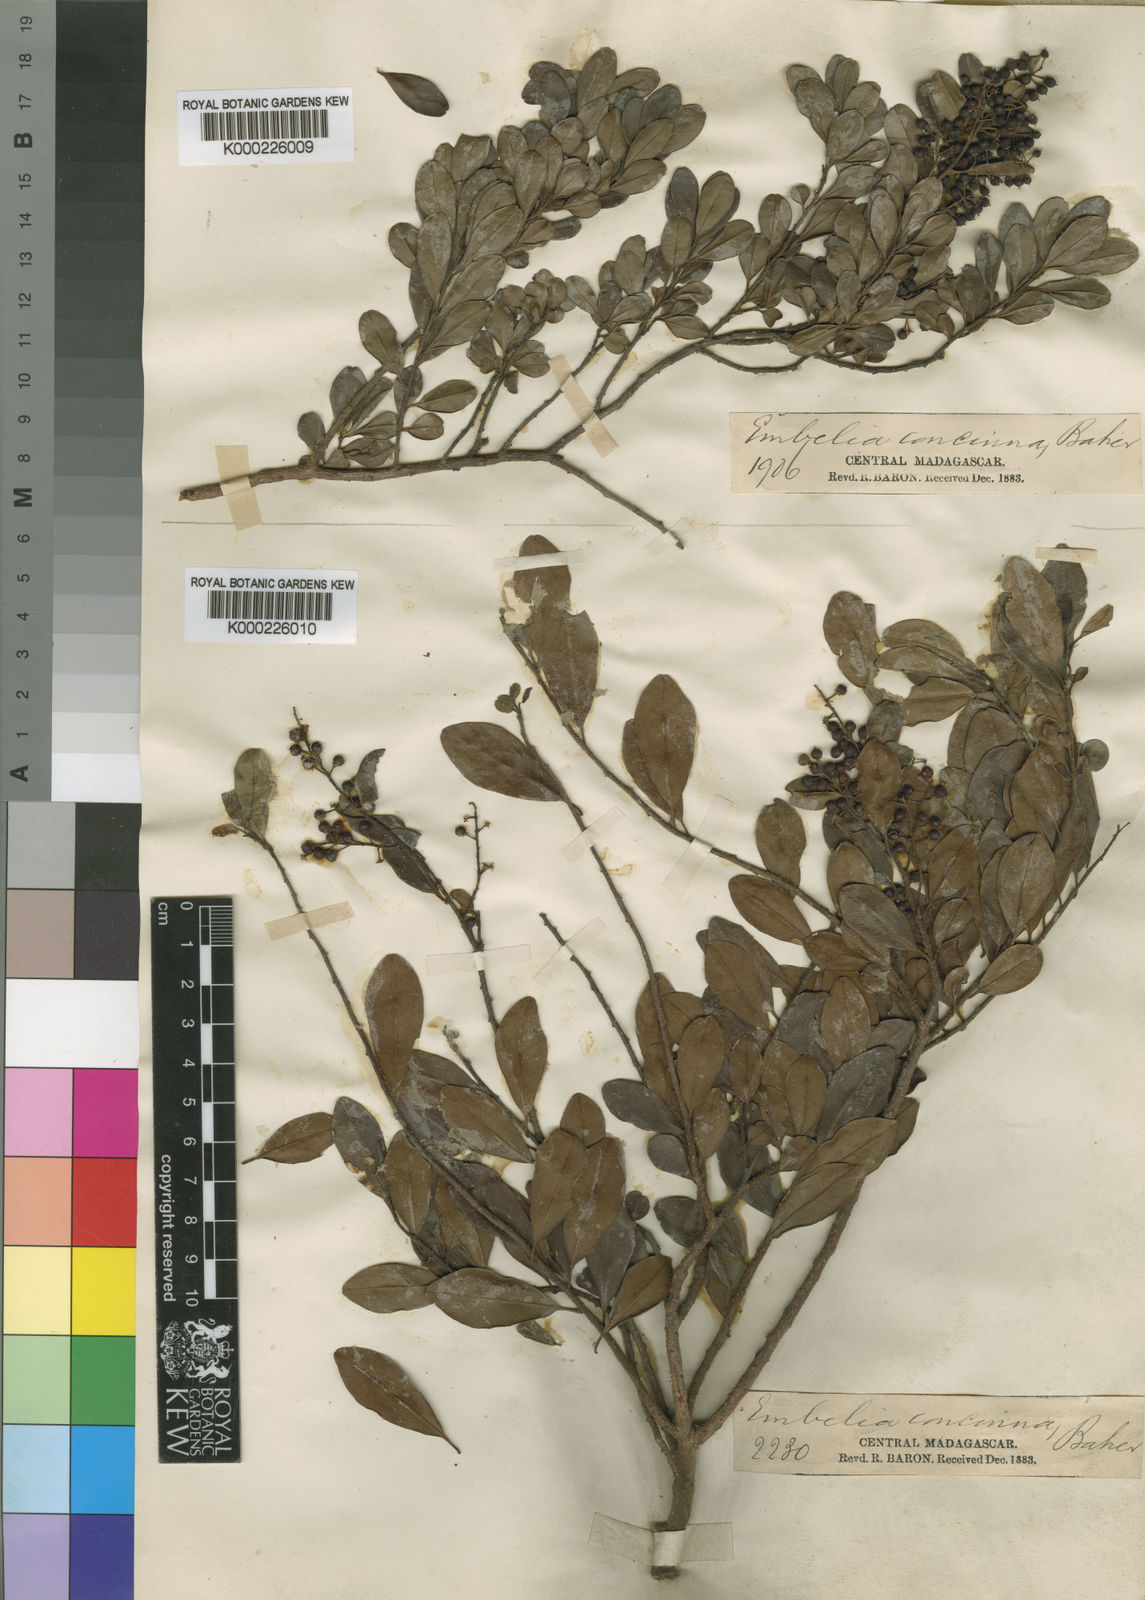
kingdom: Plantae
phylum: Tracheophyta
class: Magnoliopsida
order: Ericales
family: Primulaceae
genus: Embelia
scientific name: Embelia concinna
